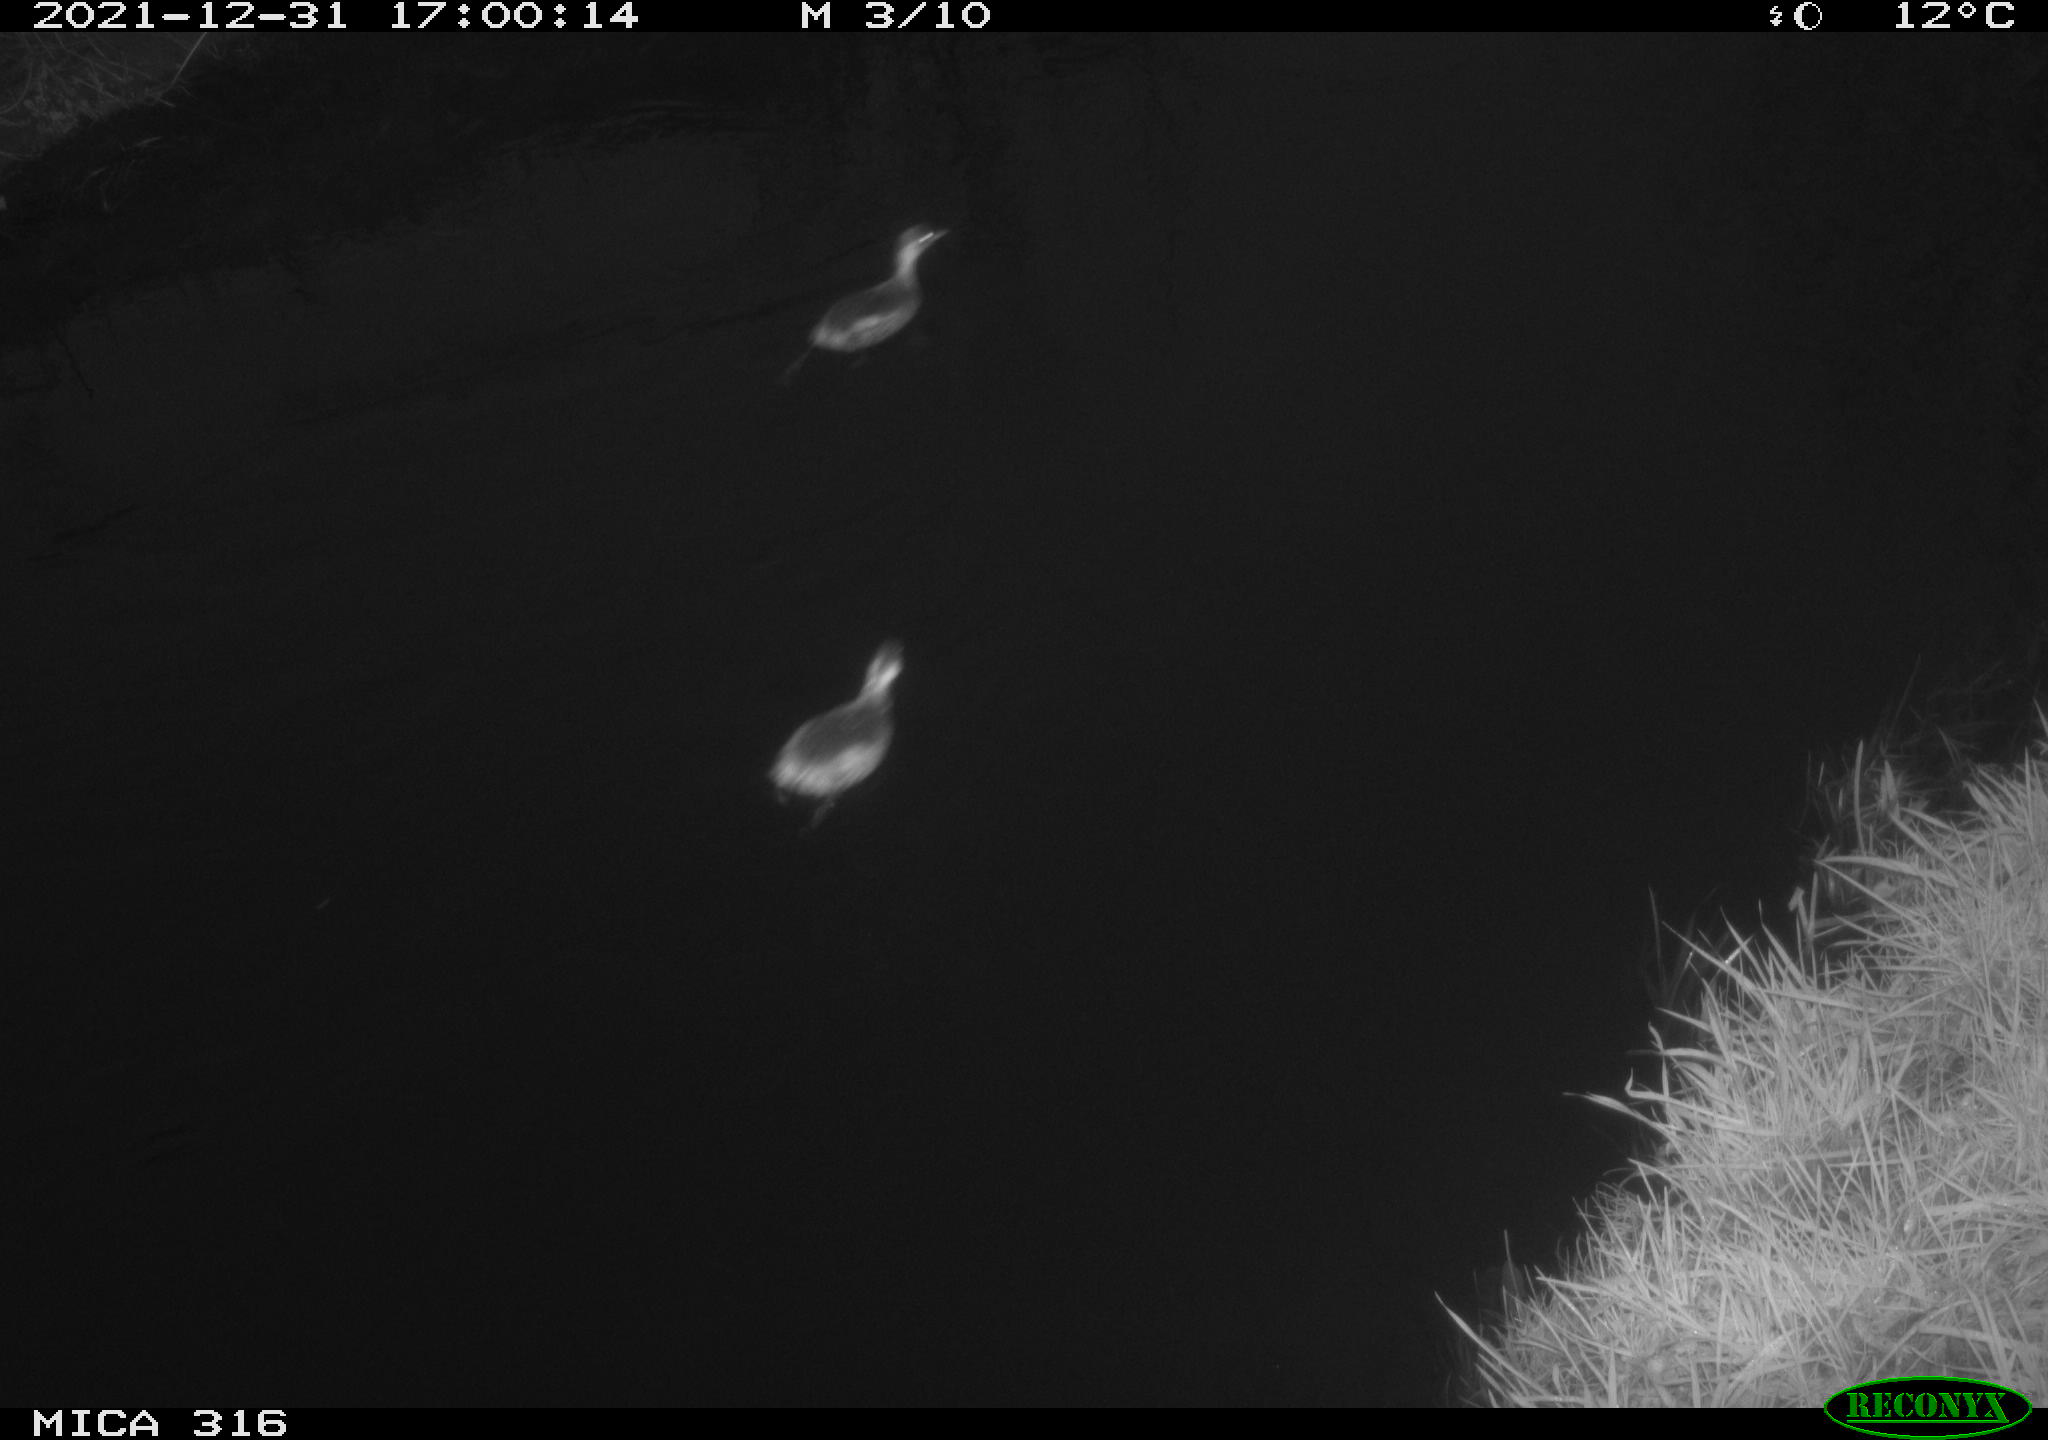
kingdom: Animalia
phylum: Chordata
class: Aves
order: Gruiformes
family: Rallidae
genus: Fulica
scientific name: Fulica atra
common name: Eurasian coot
